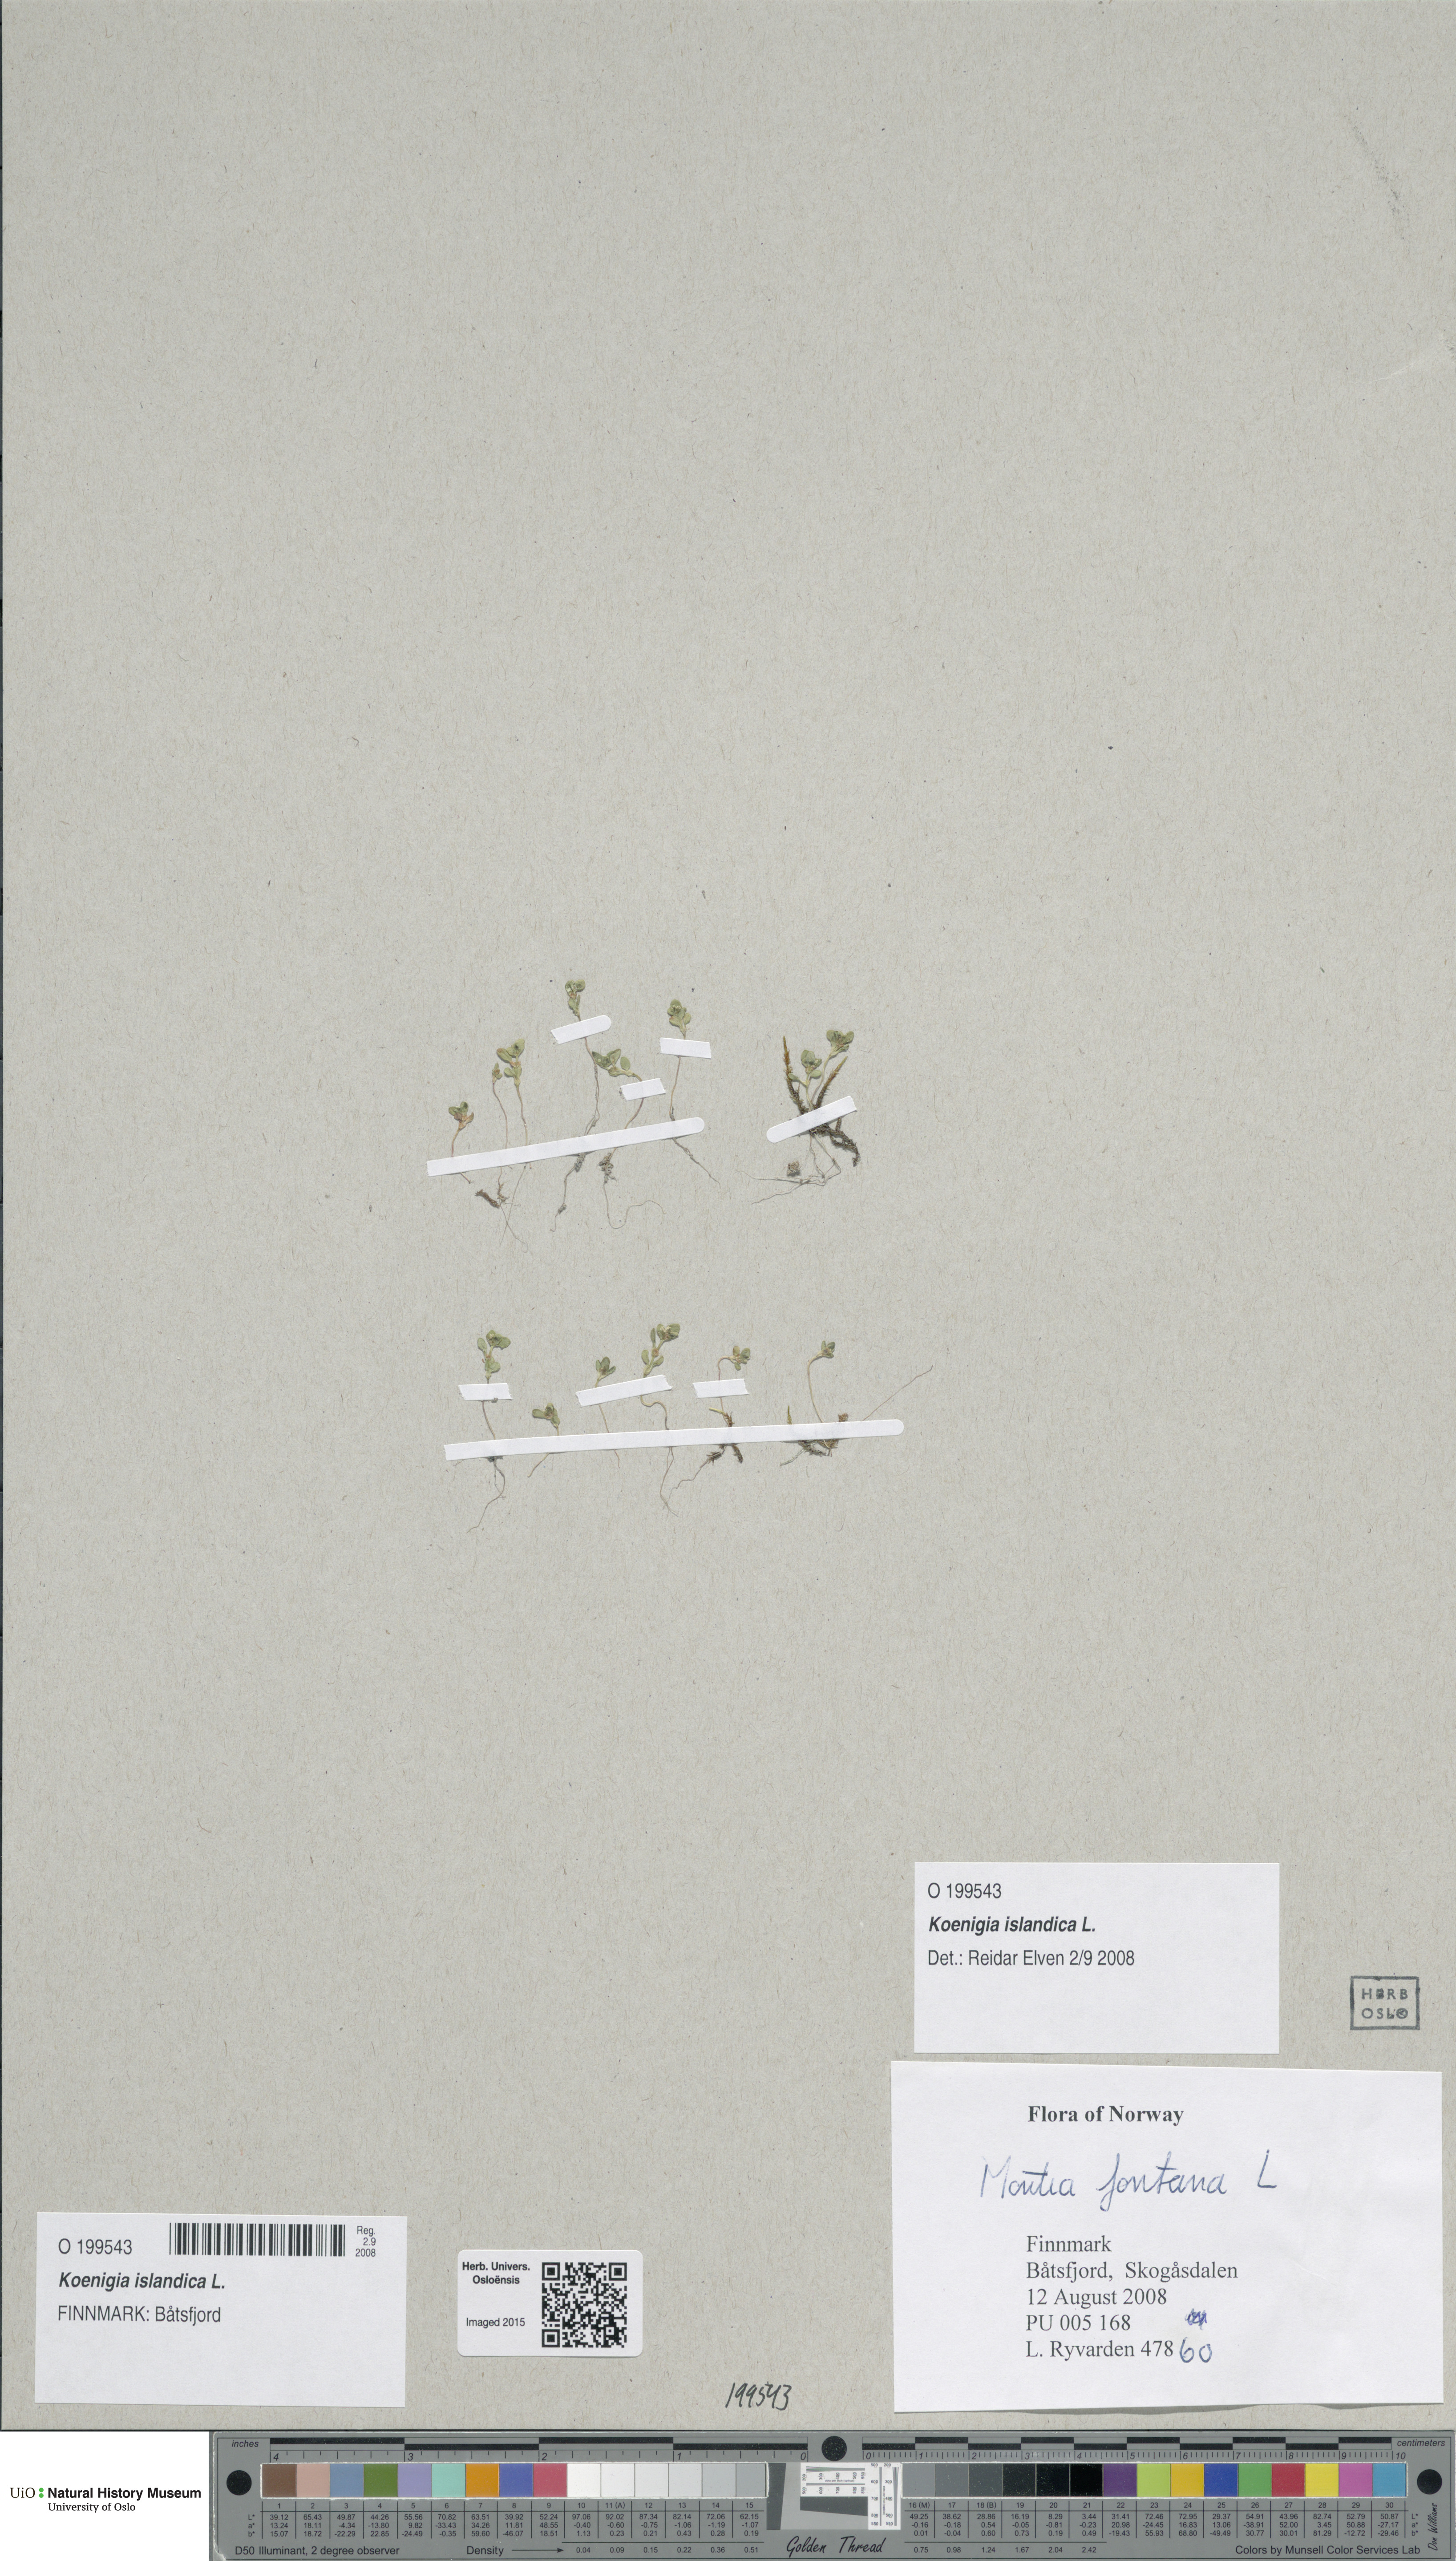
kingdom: Plantae
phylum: Tracheophyta
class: Magnoliopsida
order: Caryophyllales
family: Polygonaceae
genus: Koenigia
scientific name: Koenigia islandica
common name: Iceland-purslane
